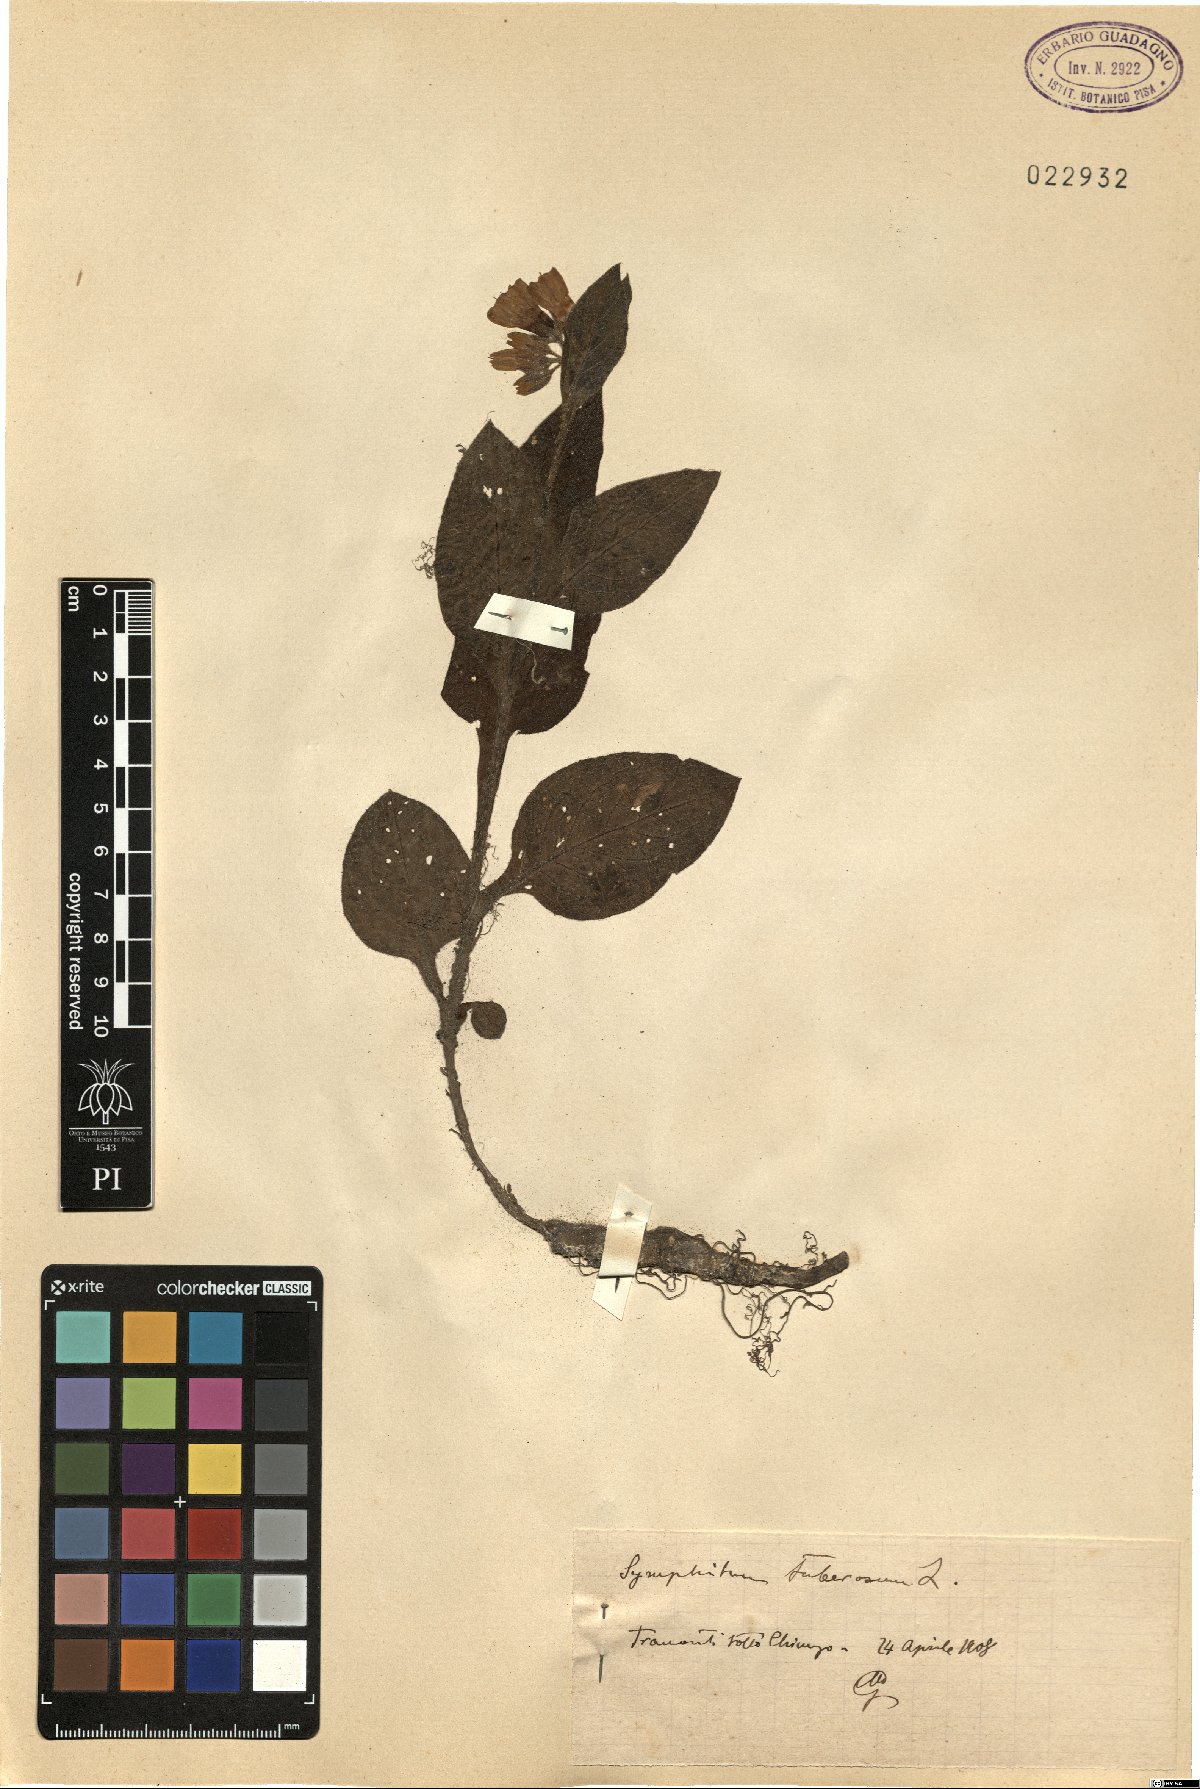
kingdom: Plantae
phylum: Tracheophyta
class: Magnoliopsida
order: Boraginales
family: Boraginaceae
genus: Symphytum
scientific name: Symphytum tuberosum
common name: Tuberous comfrey
